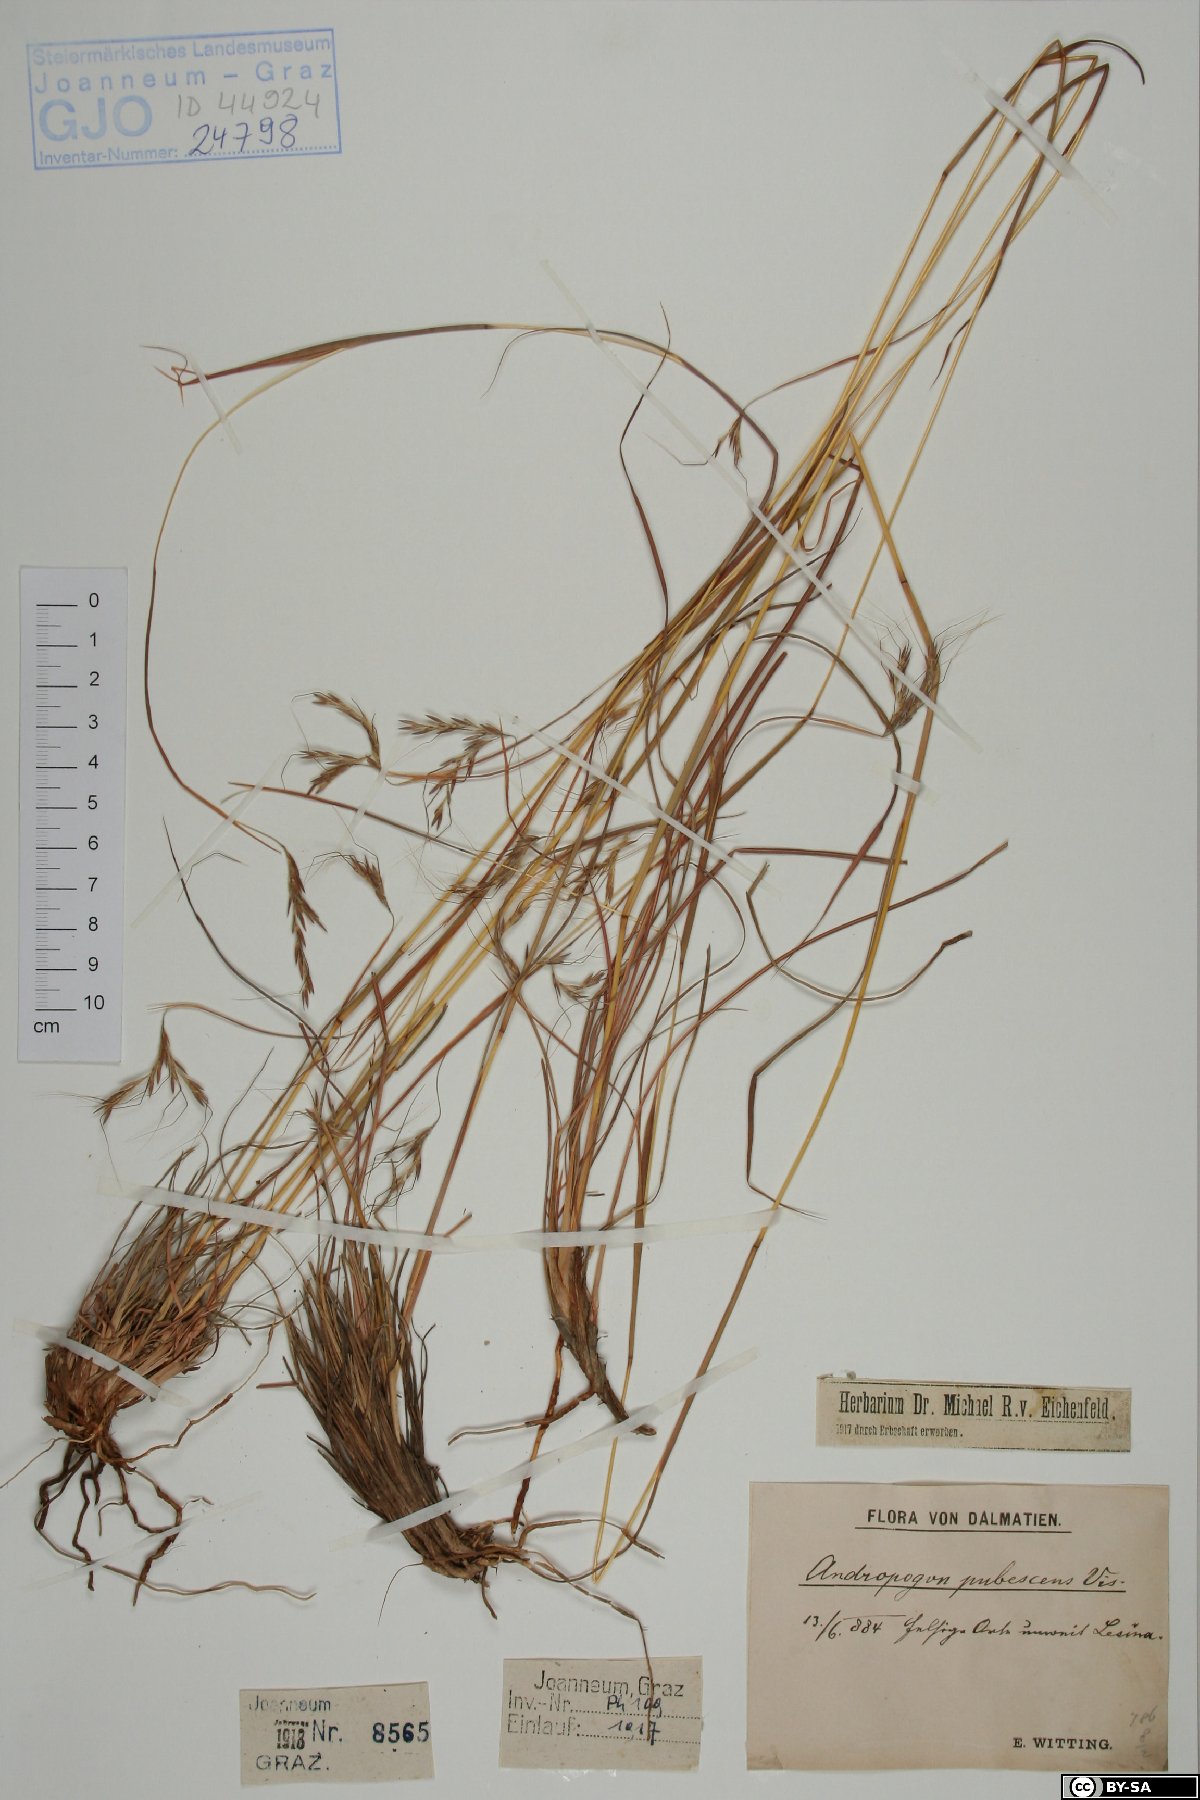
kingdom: Plantae
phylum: Tracheophyta
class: Liliopsida
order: Poales
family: Poaceae
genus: Hyparrhenia
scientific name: Hyparrhenia hirta
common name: Thatching grass
